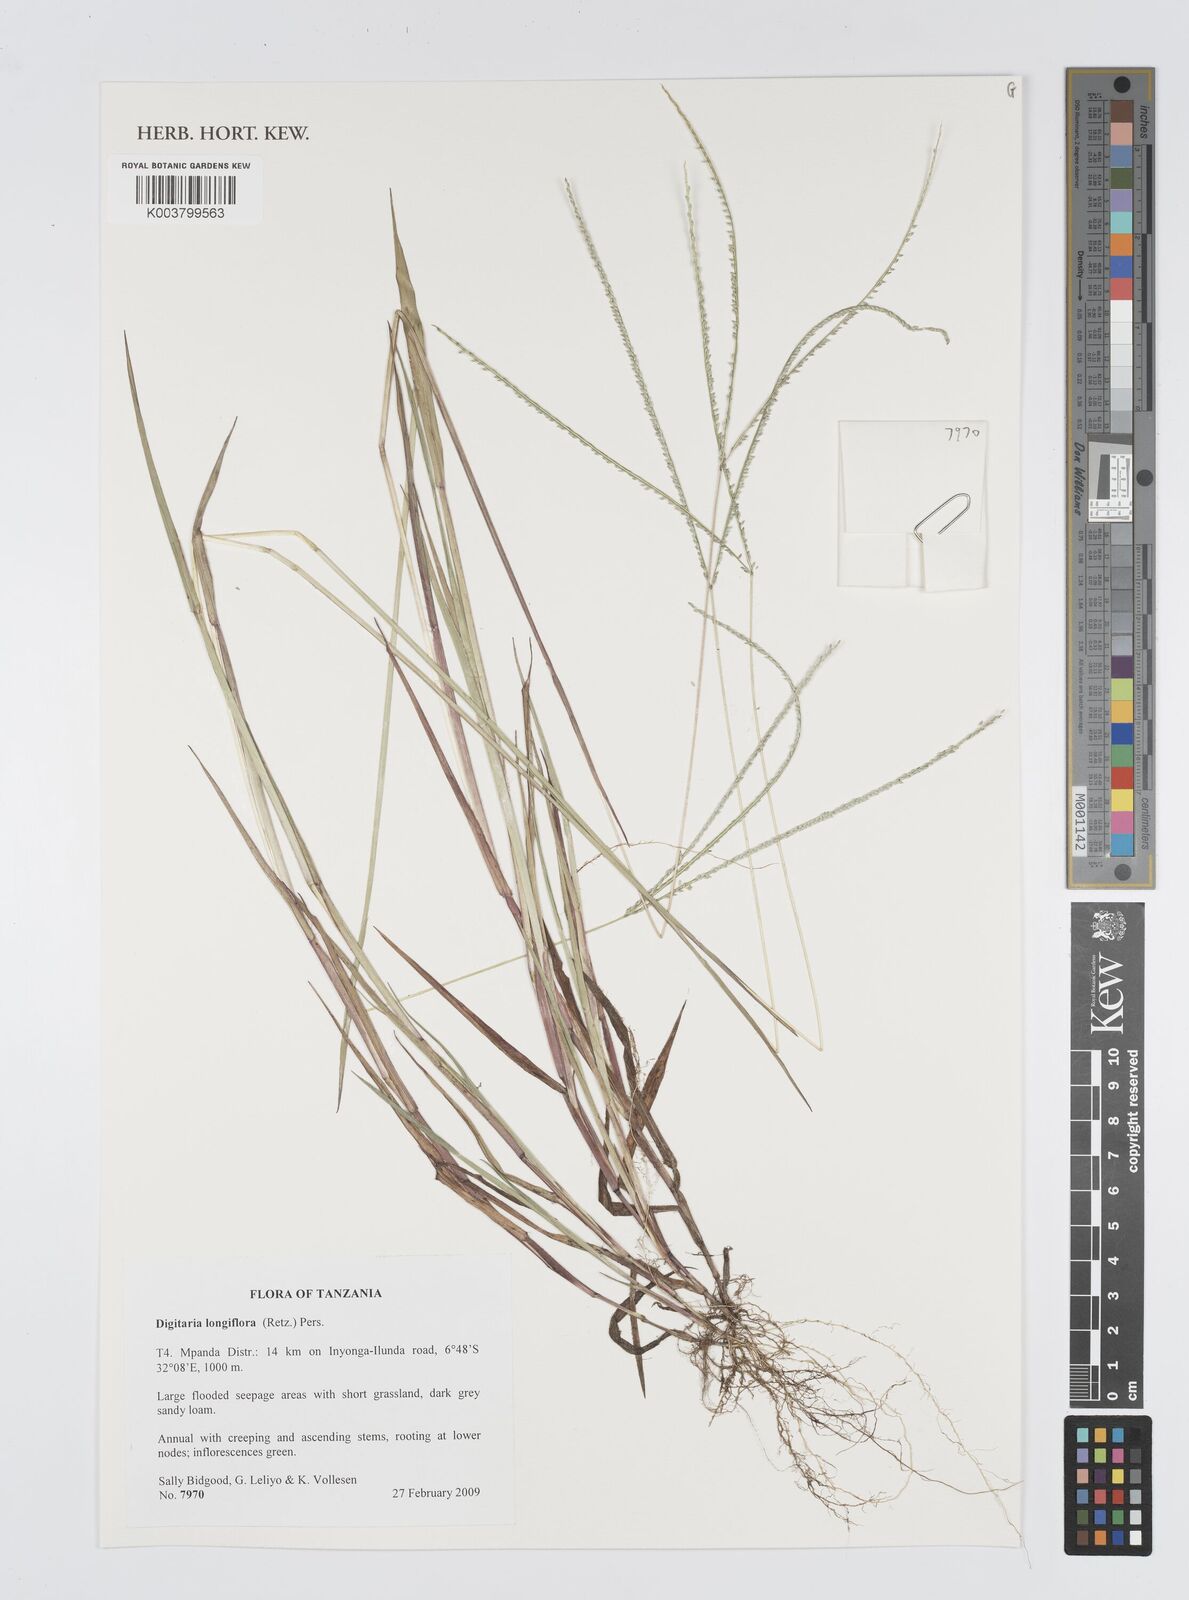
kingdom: Plantae
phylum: Tracheophyta
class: Liliopsida
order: Poales
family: Poaceae
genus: Digitaria
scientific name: Digitaria longiflora
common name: Wire crabgrass
